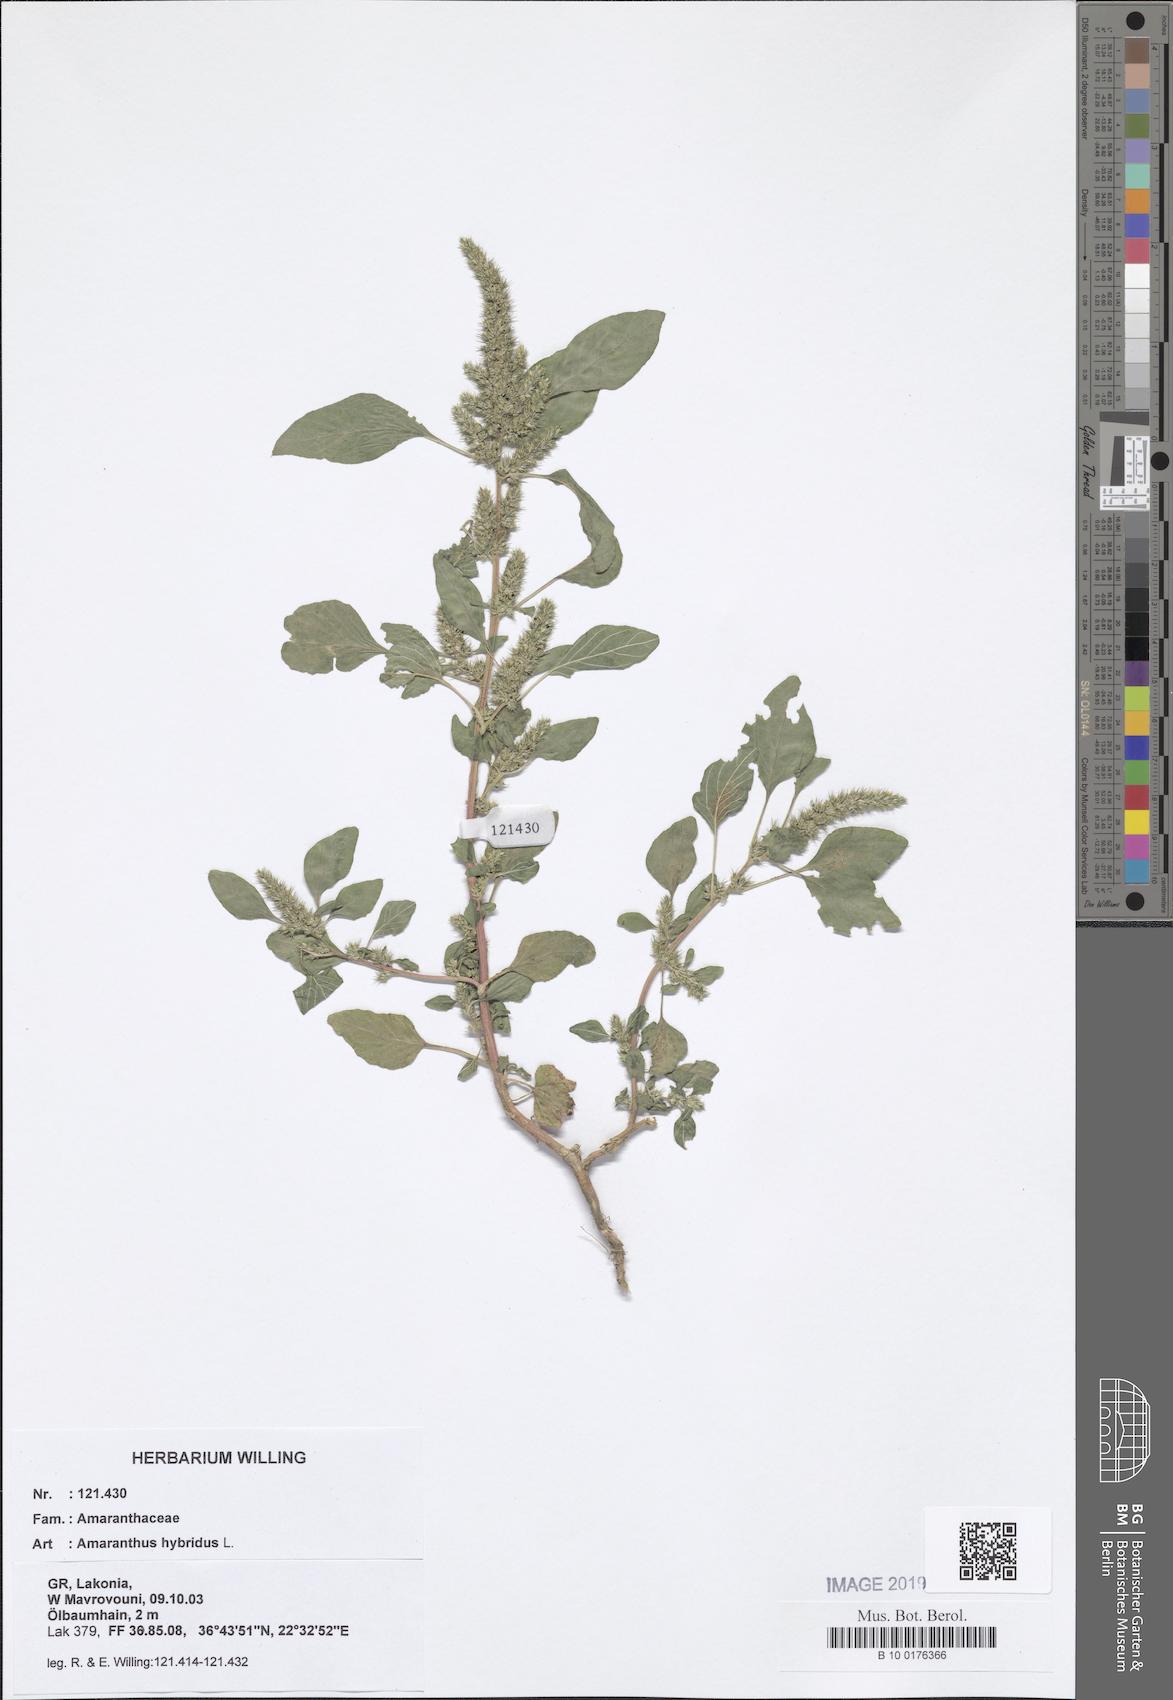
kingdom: Plantae
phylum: Tracheophyta
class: Magnoliopsida
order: Caryophyllales
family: Amaranthaceae
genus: Amaranthus
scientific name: Amaranthus hybridus
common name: Green amaranth
